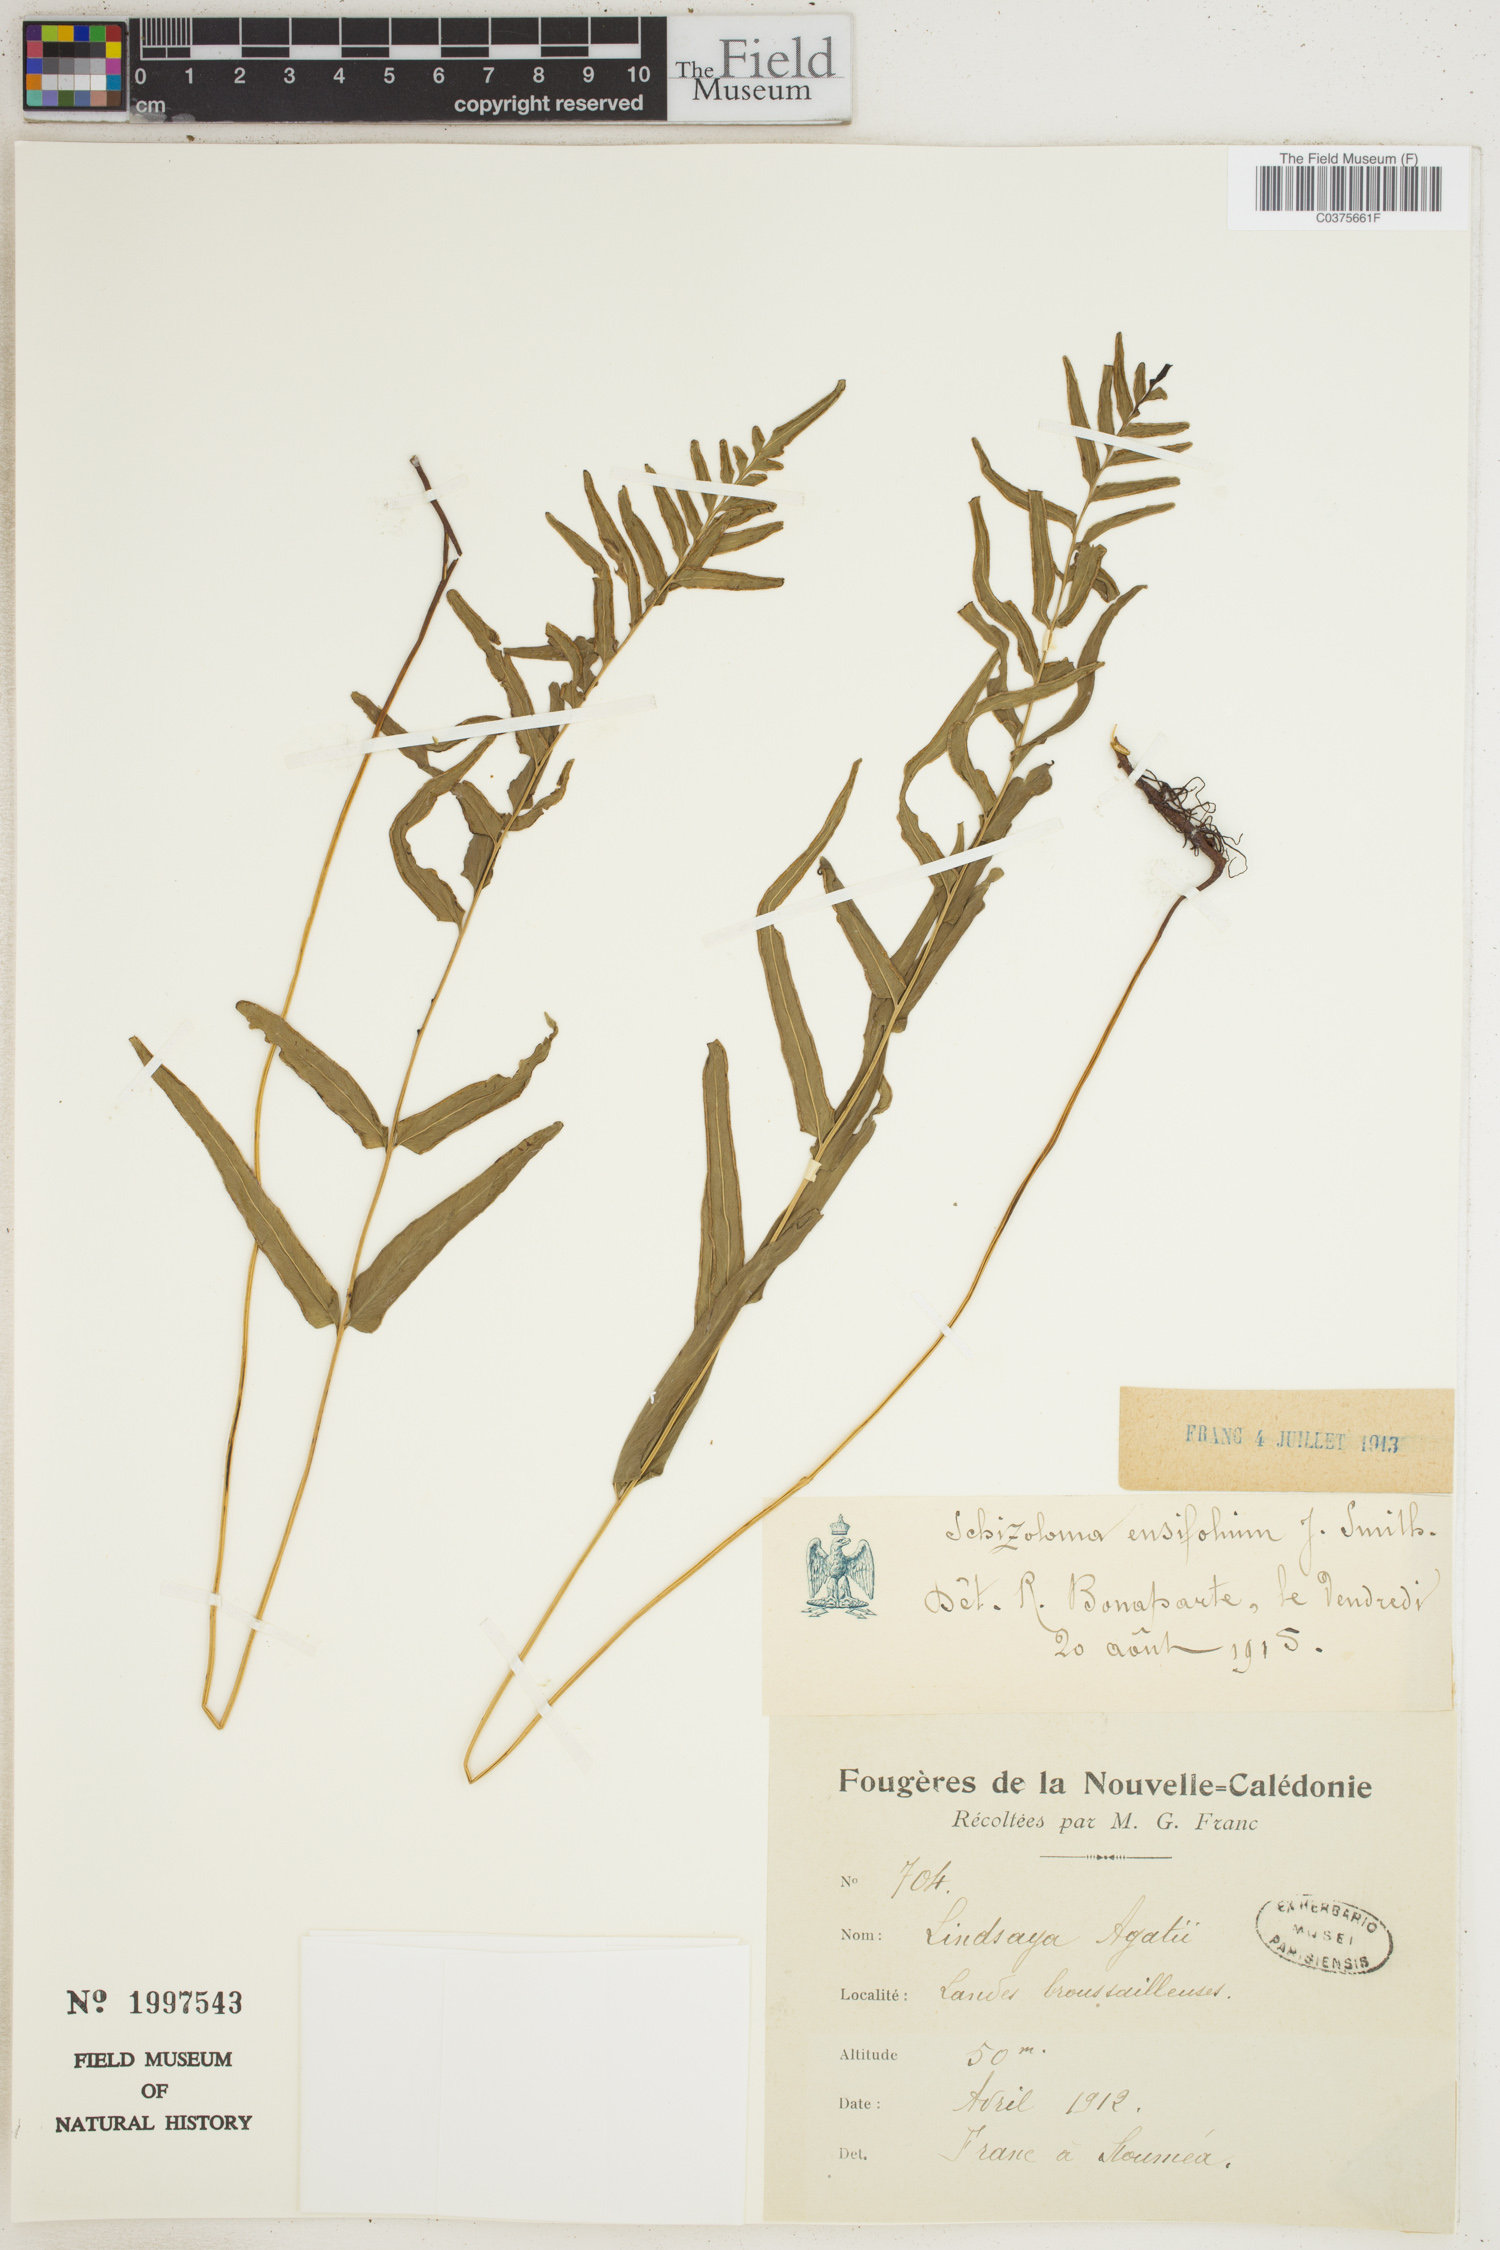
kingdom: Plantae
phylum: Tracheophyta
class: Polypodiopsida
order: Polypodiales
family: Lindsaeaceae
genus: Lindsaea
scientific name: Lindsaea ensifolia
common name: Graceful necklace fern
